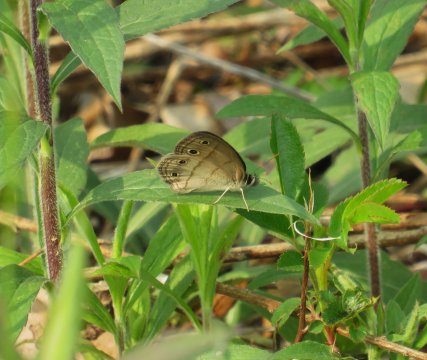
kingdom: Animalia
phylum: Arthropoda
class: Insecta
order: Lepidoptera
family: Nymphalidae
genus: Euptychia
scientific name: Euptychia cymela
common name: Little Wood Satyr
